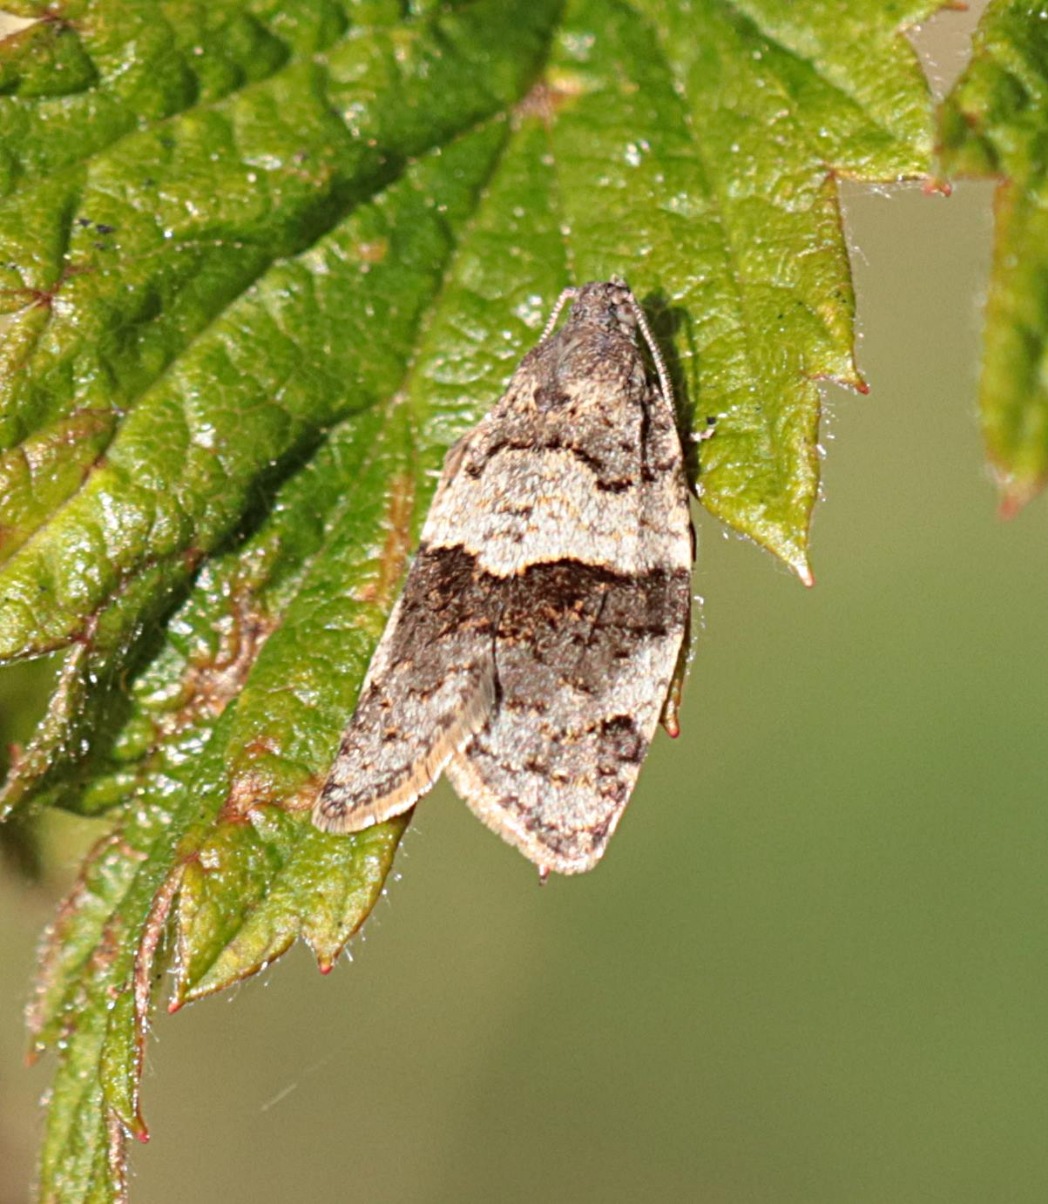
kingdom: Animalia
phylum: Arthropoda
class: Insecta
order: Lepidoptera
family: Tortricidae
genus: Syndemis
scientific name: Syndemis musculana
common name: Høstvikler
